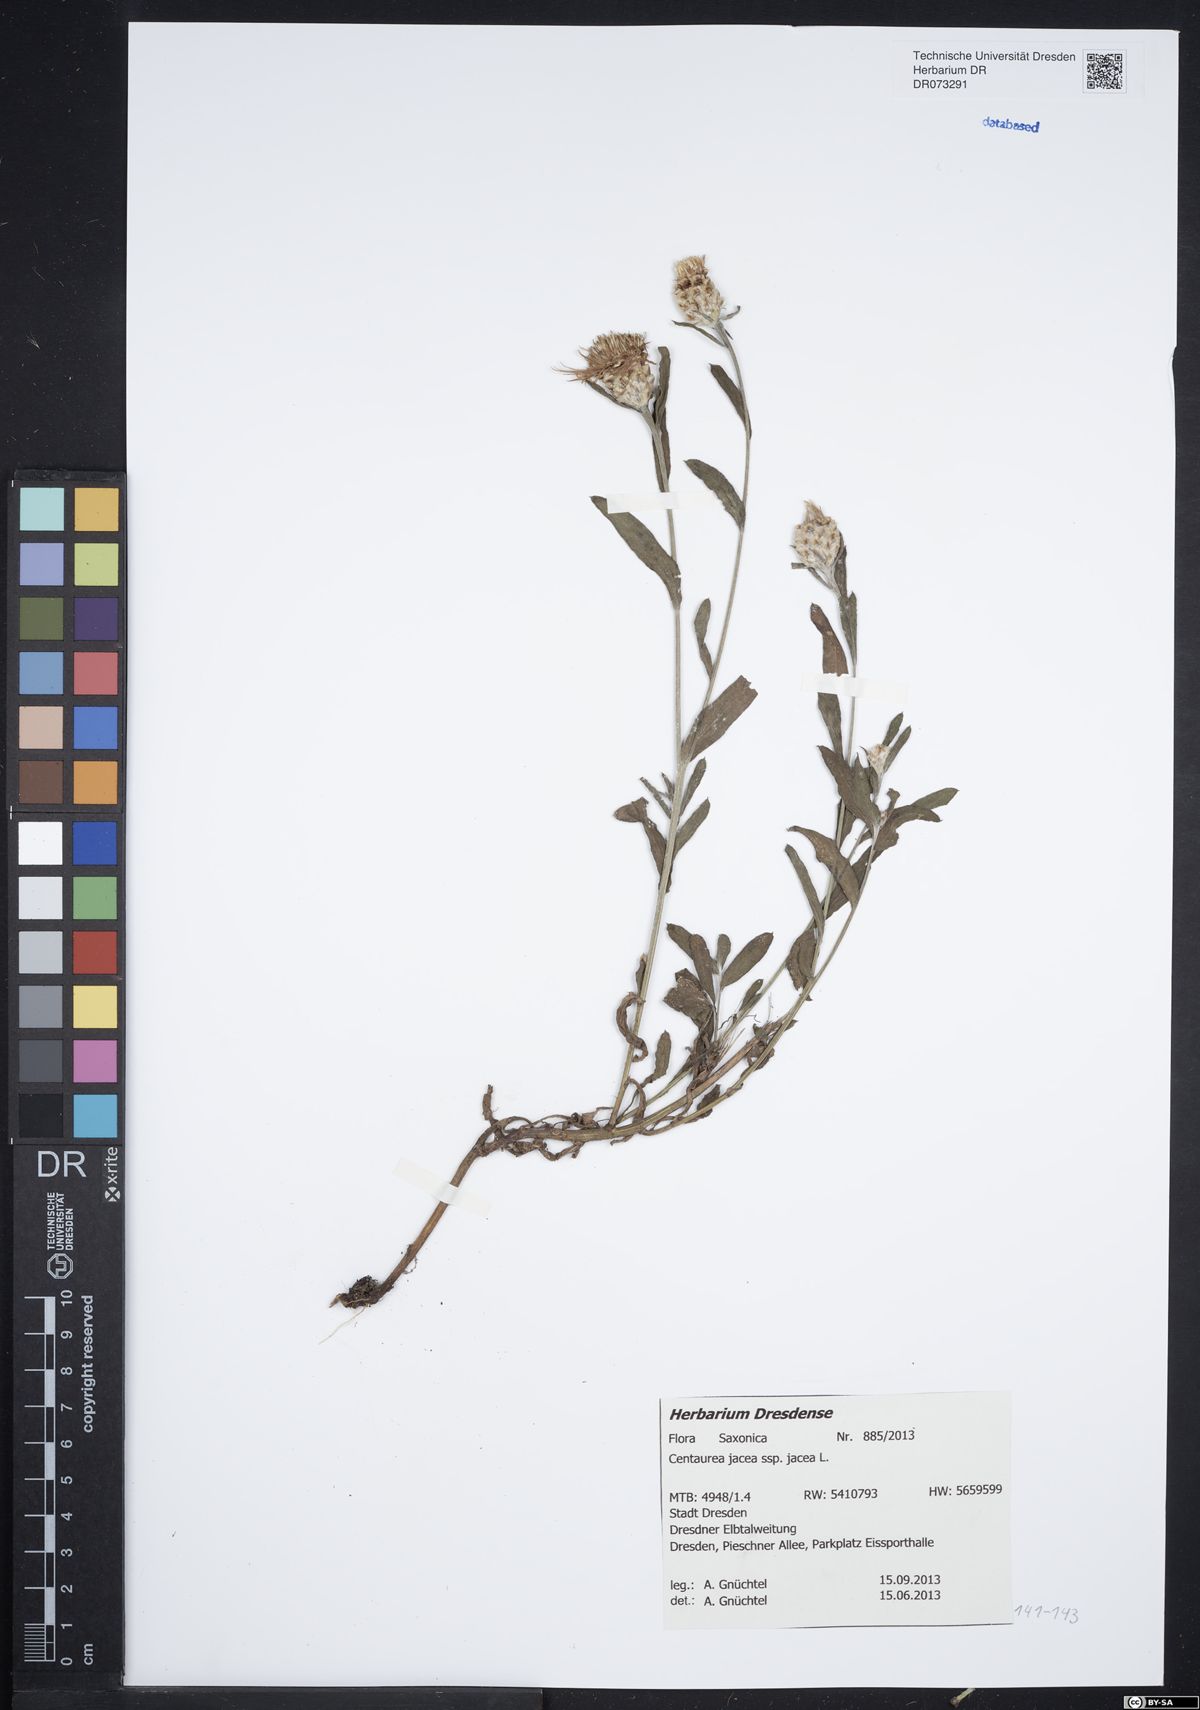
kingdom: Plantae
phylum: Tracheophyta
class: Magnoliopsida
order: Asterales
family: Asteraceae
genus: Centaurea
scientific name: Centaurea jacea
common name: Brown knapweed
